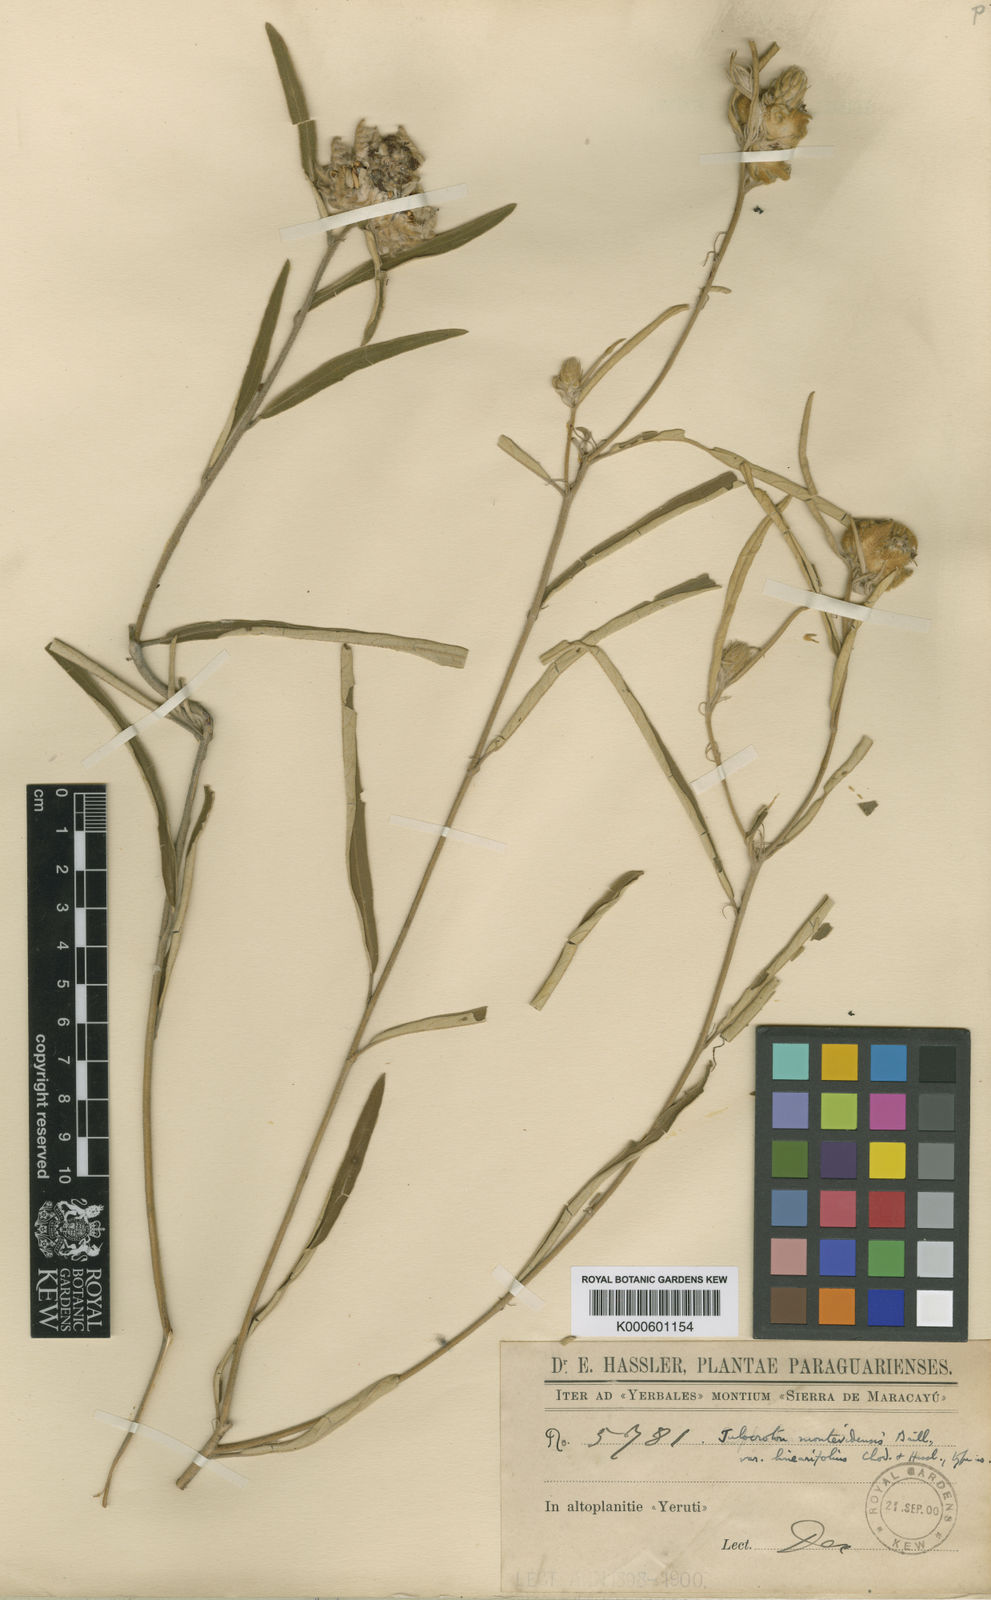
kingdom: Plantae
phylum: Tracheophyta
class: Magnoliopsida
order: Malpighiales
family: Euphorbiaceae
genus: Croton
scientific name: Croton argenteus
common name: Silver july croton
